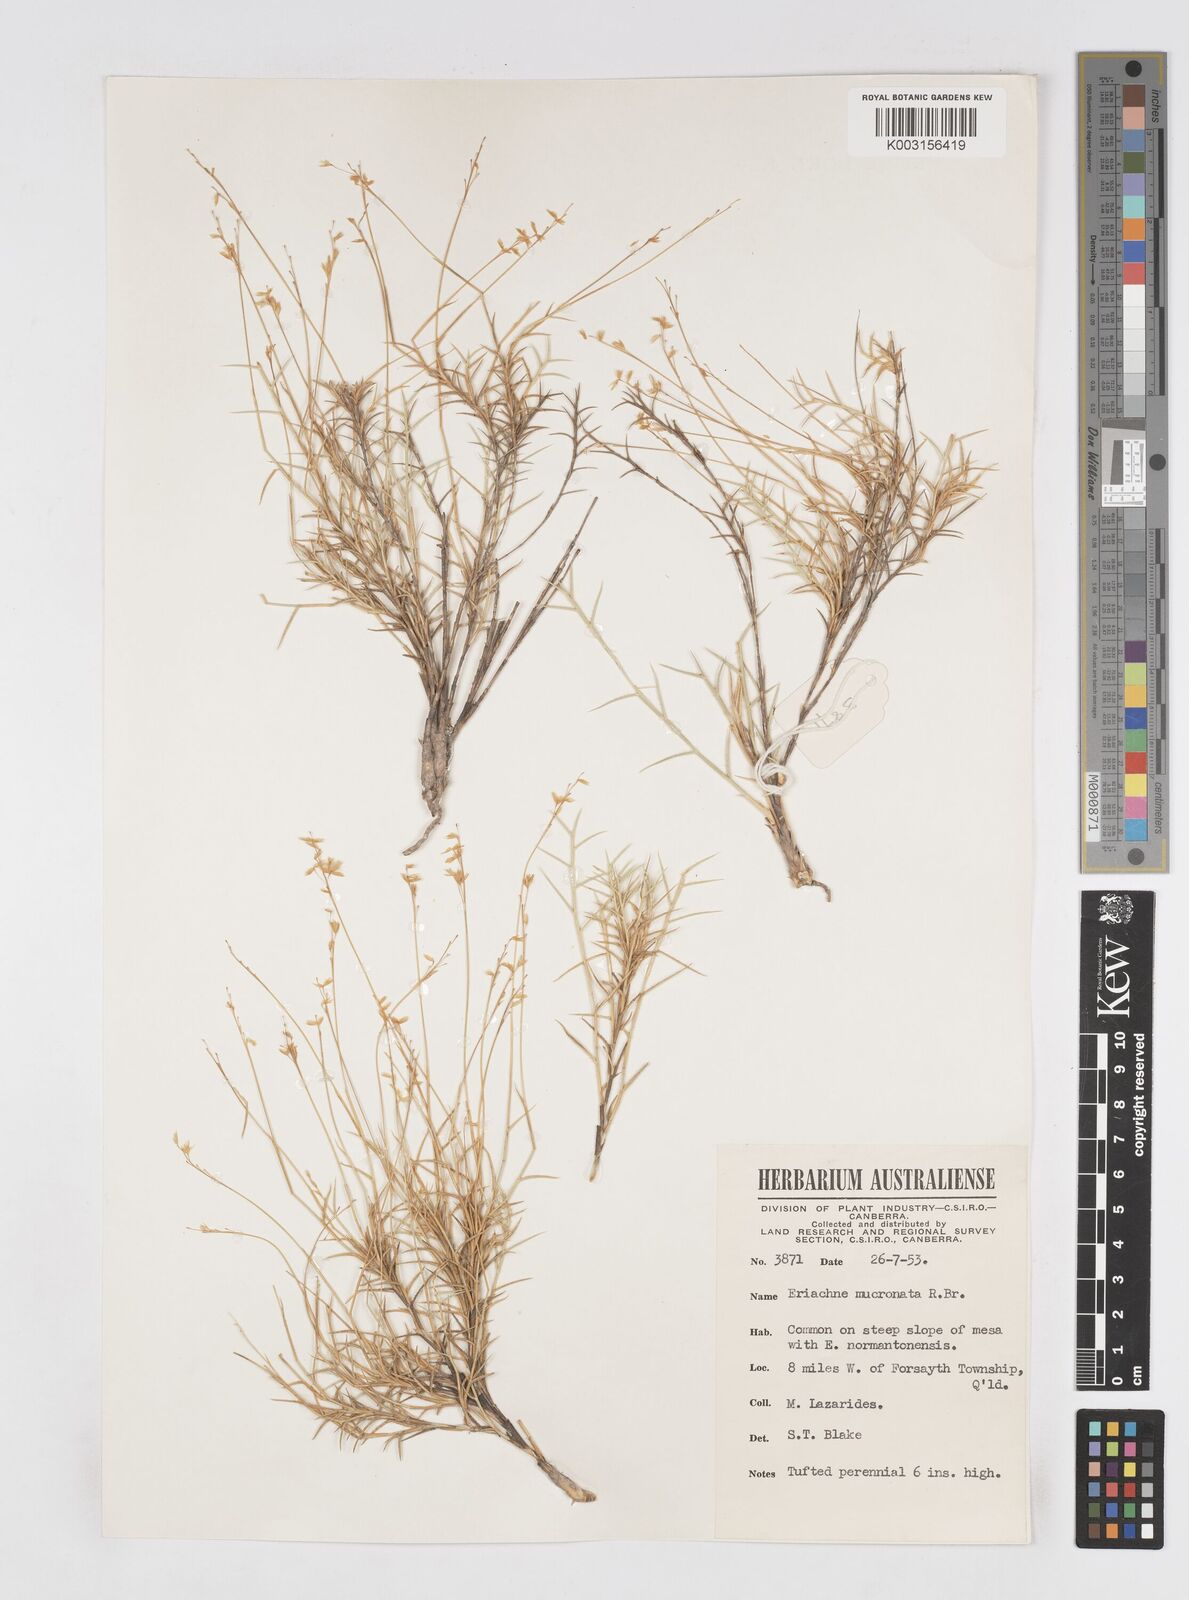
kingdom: Plantae
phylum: Tracheophyta
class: Liliopsida
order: Poales
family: Poaceae
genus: Eriachne
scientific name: Eriachne mucronata
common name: Mountain wanderrie grass
